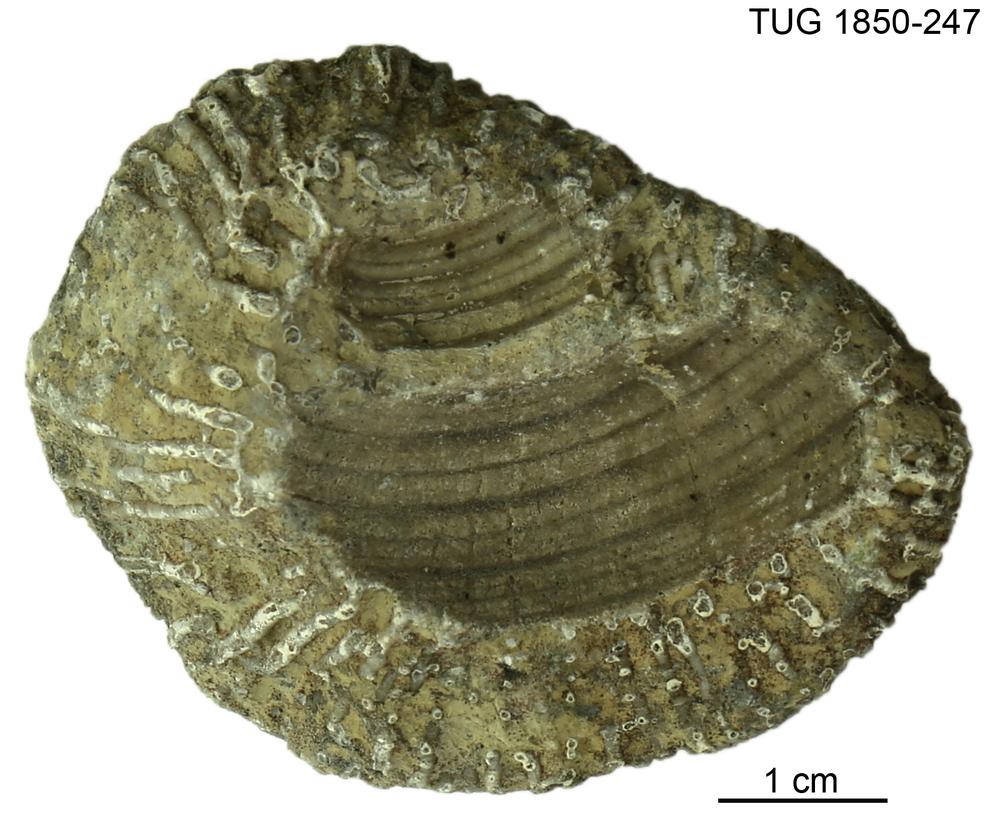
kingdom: Animalia
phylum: Cnidaria
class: Anthozoa
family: Syringoporidae
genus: Syringopora
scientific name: Syringopora
